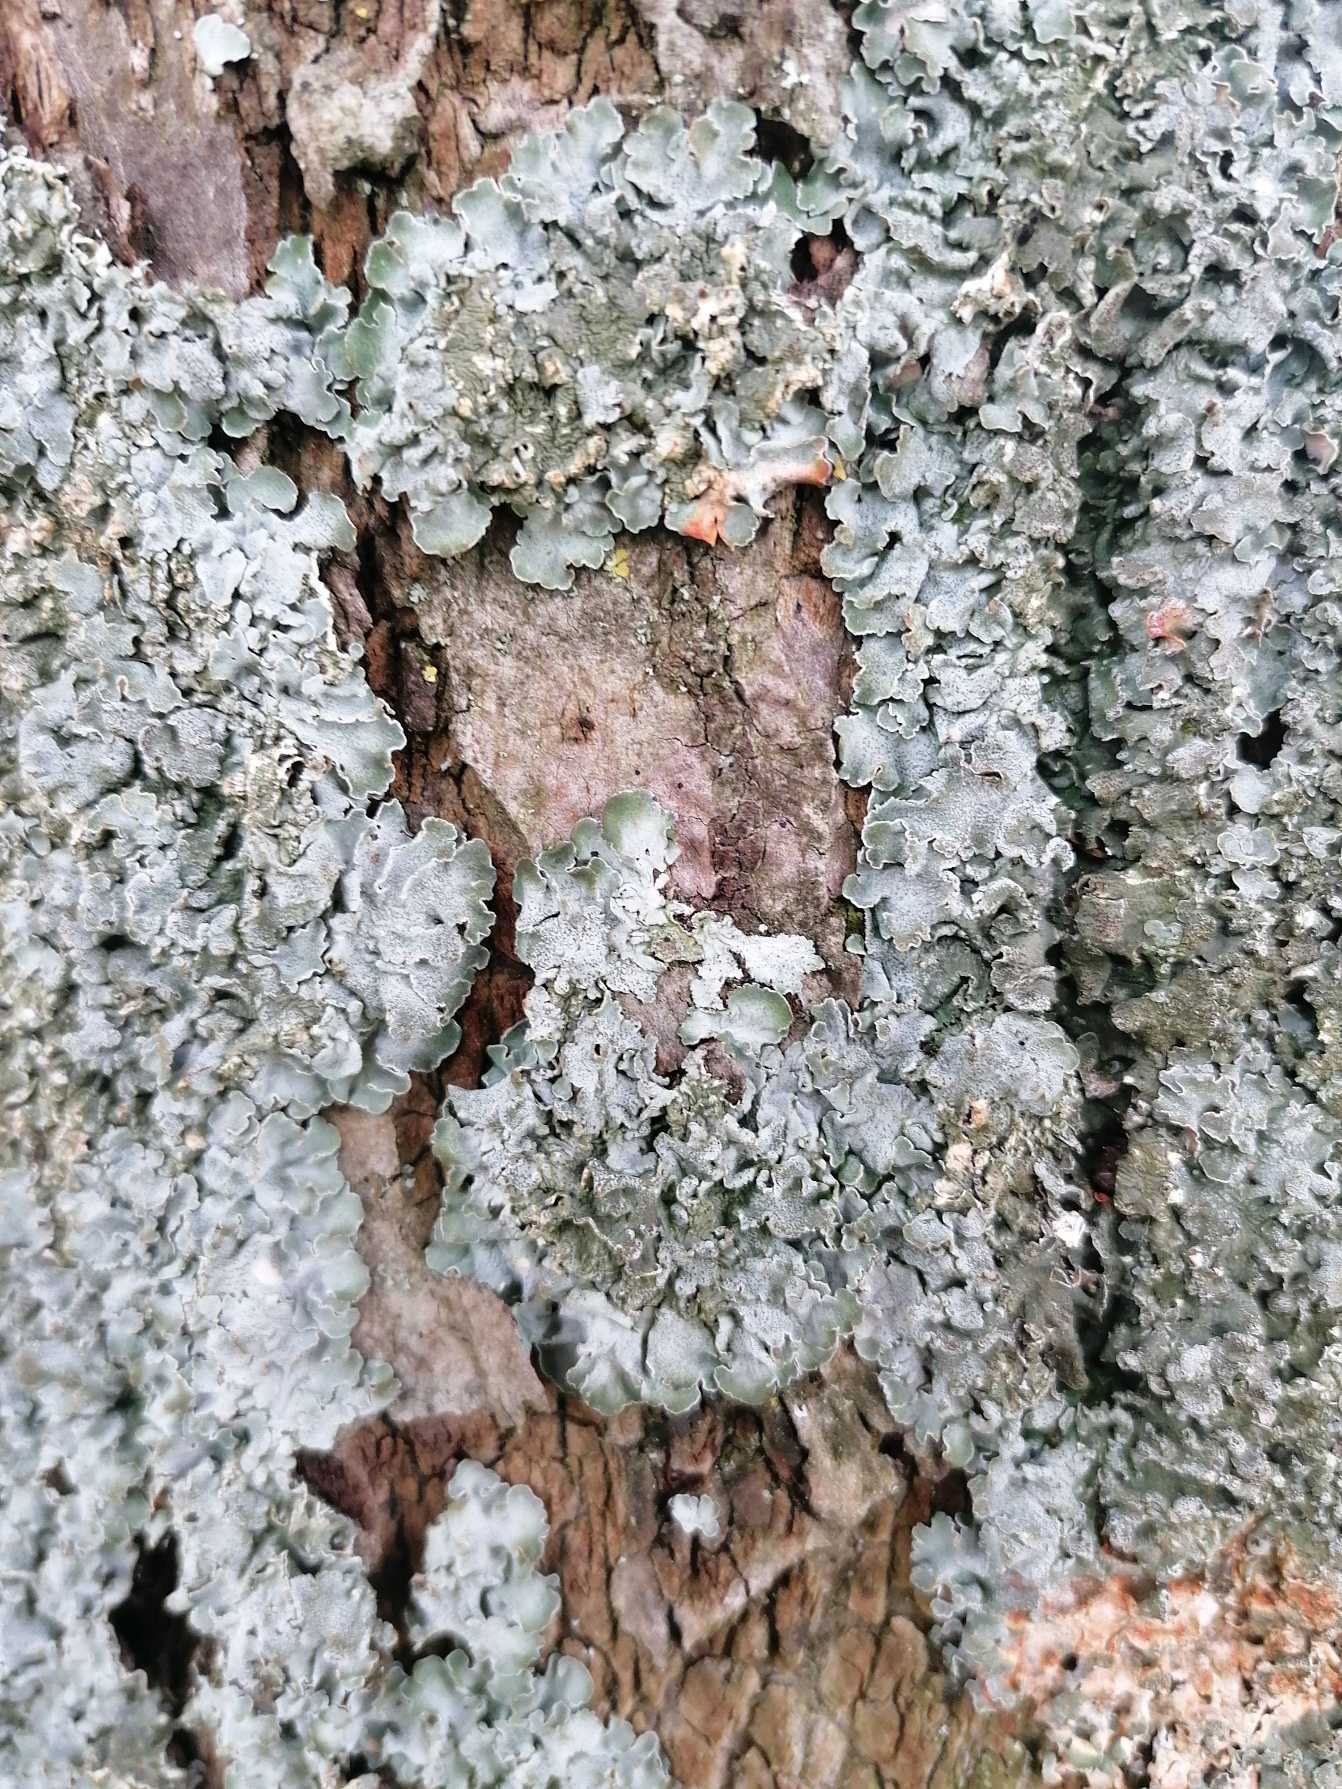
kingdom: Fungi
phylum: Ascomycota
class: Lecanoromycetes
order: Lecanorales
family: Parmeliaceae
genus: Pleurosticta
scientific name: Pleurosticta acetabulum
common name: Stor skållav
